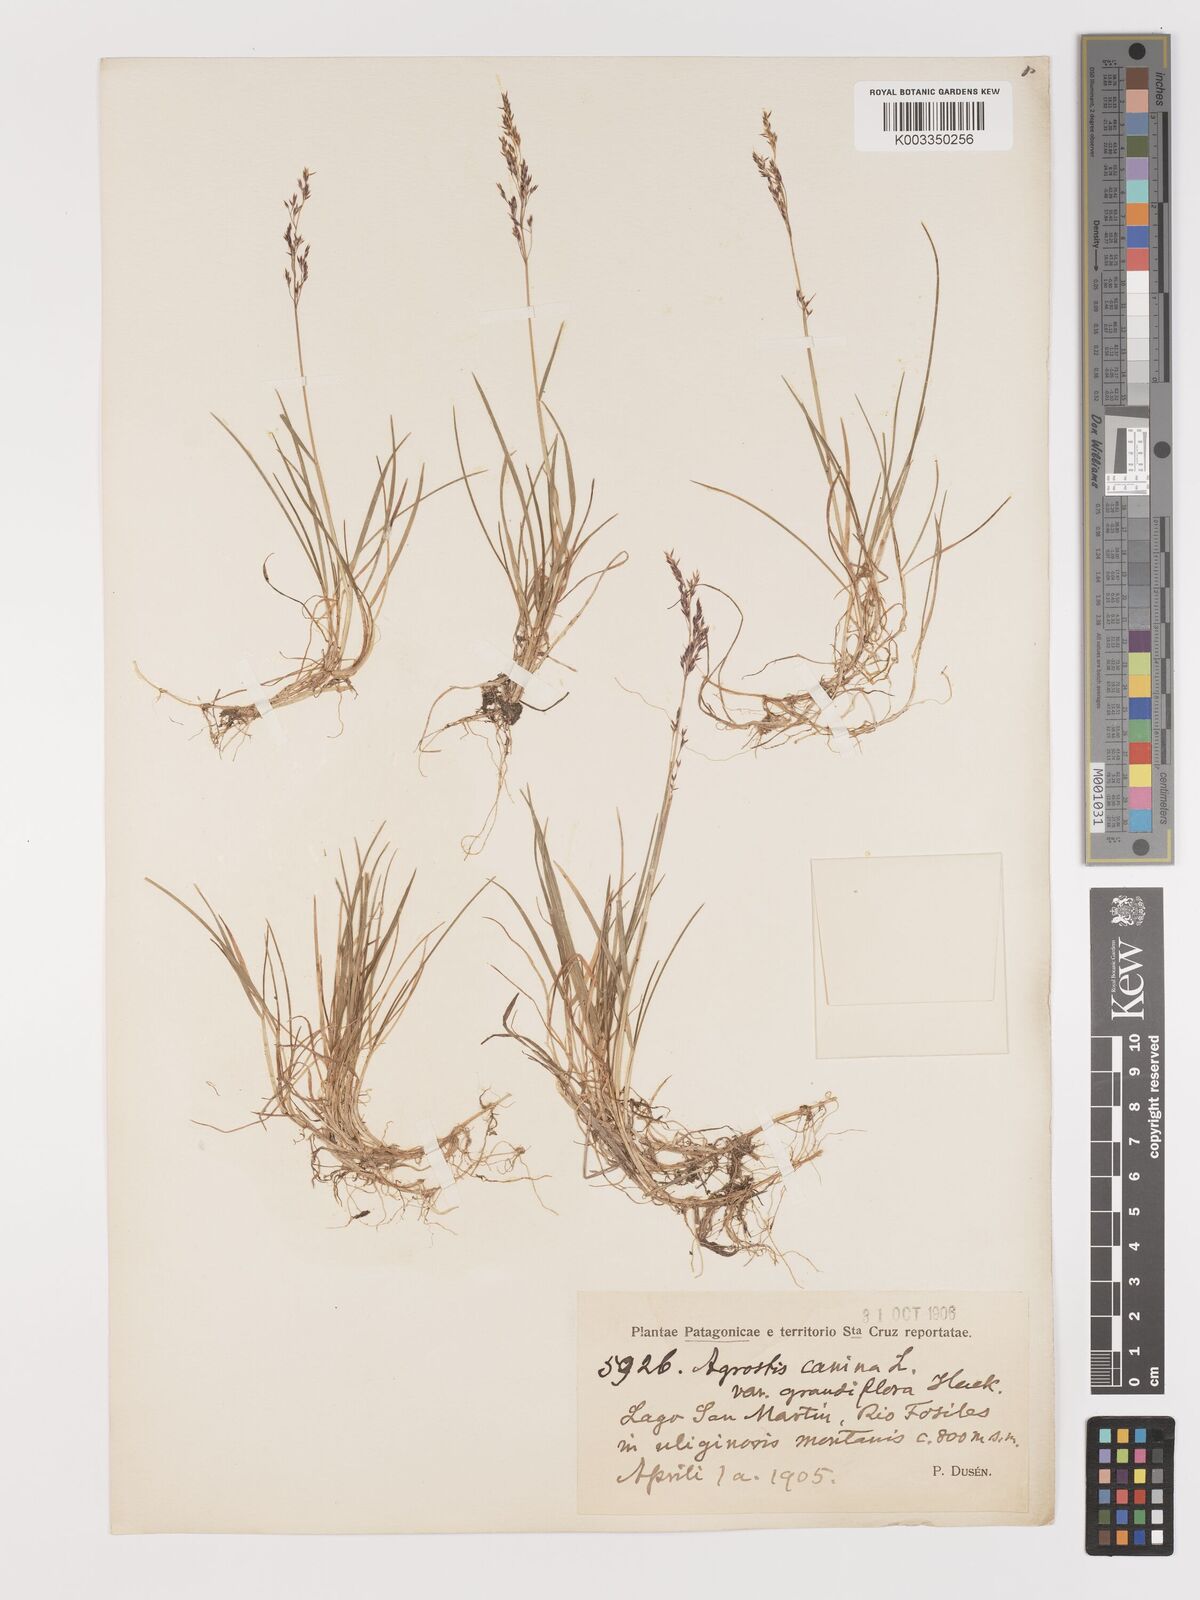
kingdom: Plantae
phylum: Tracheophyta
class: Liliopsida
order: Poales
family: Poaceae
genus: Agrostis
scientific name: Agrostis canina
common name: Velvet bent
